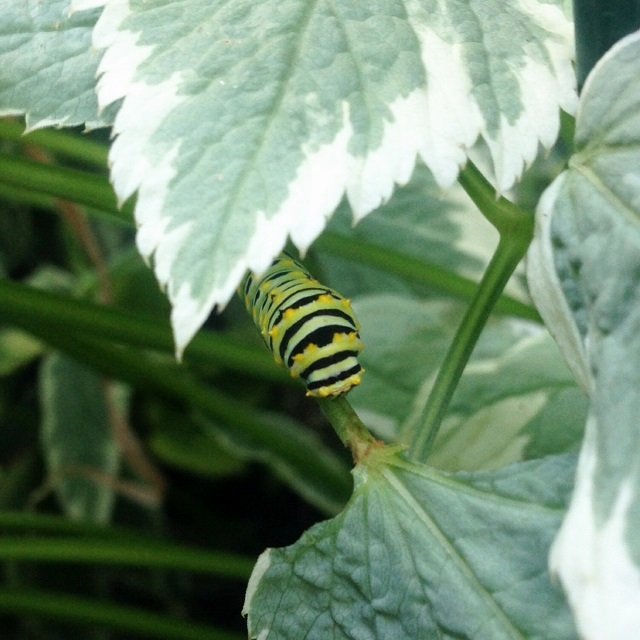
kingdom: Animalia
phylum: Arthropoda
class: Insecta
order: Lepidoptera
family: Papilionidae
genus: Papilio
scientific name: Papilio polyxenes
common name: Black Swallowtail
